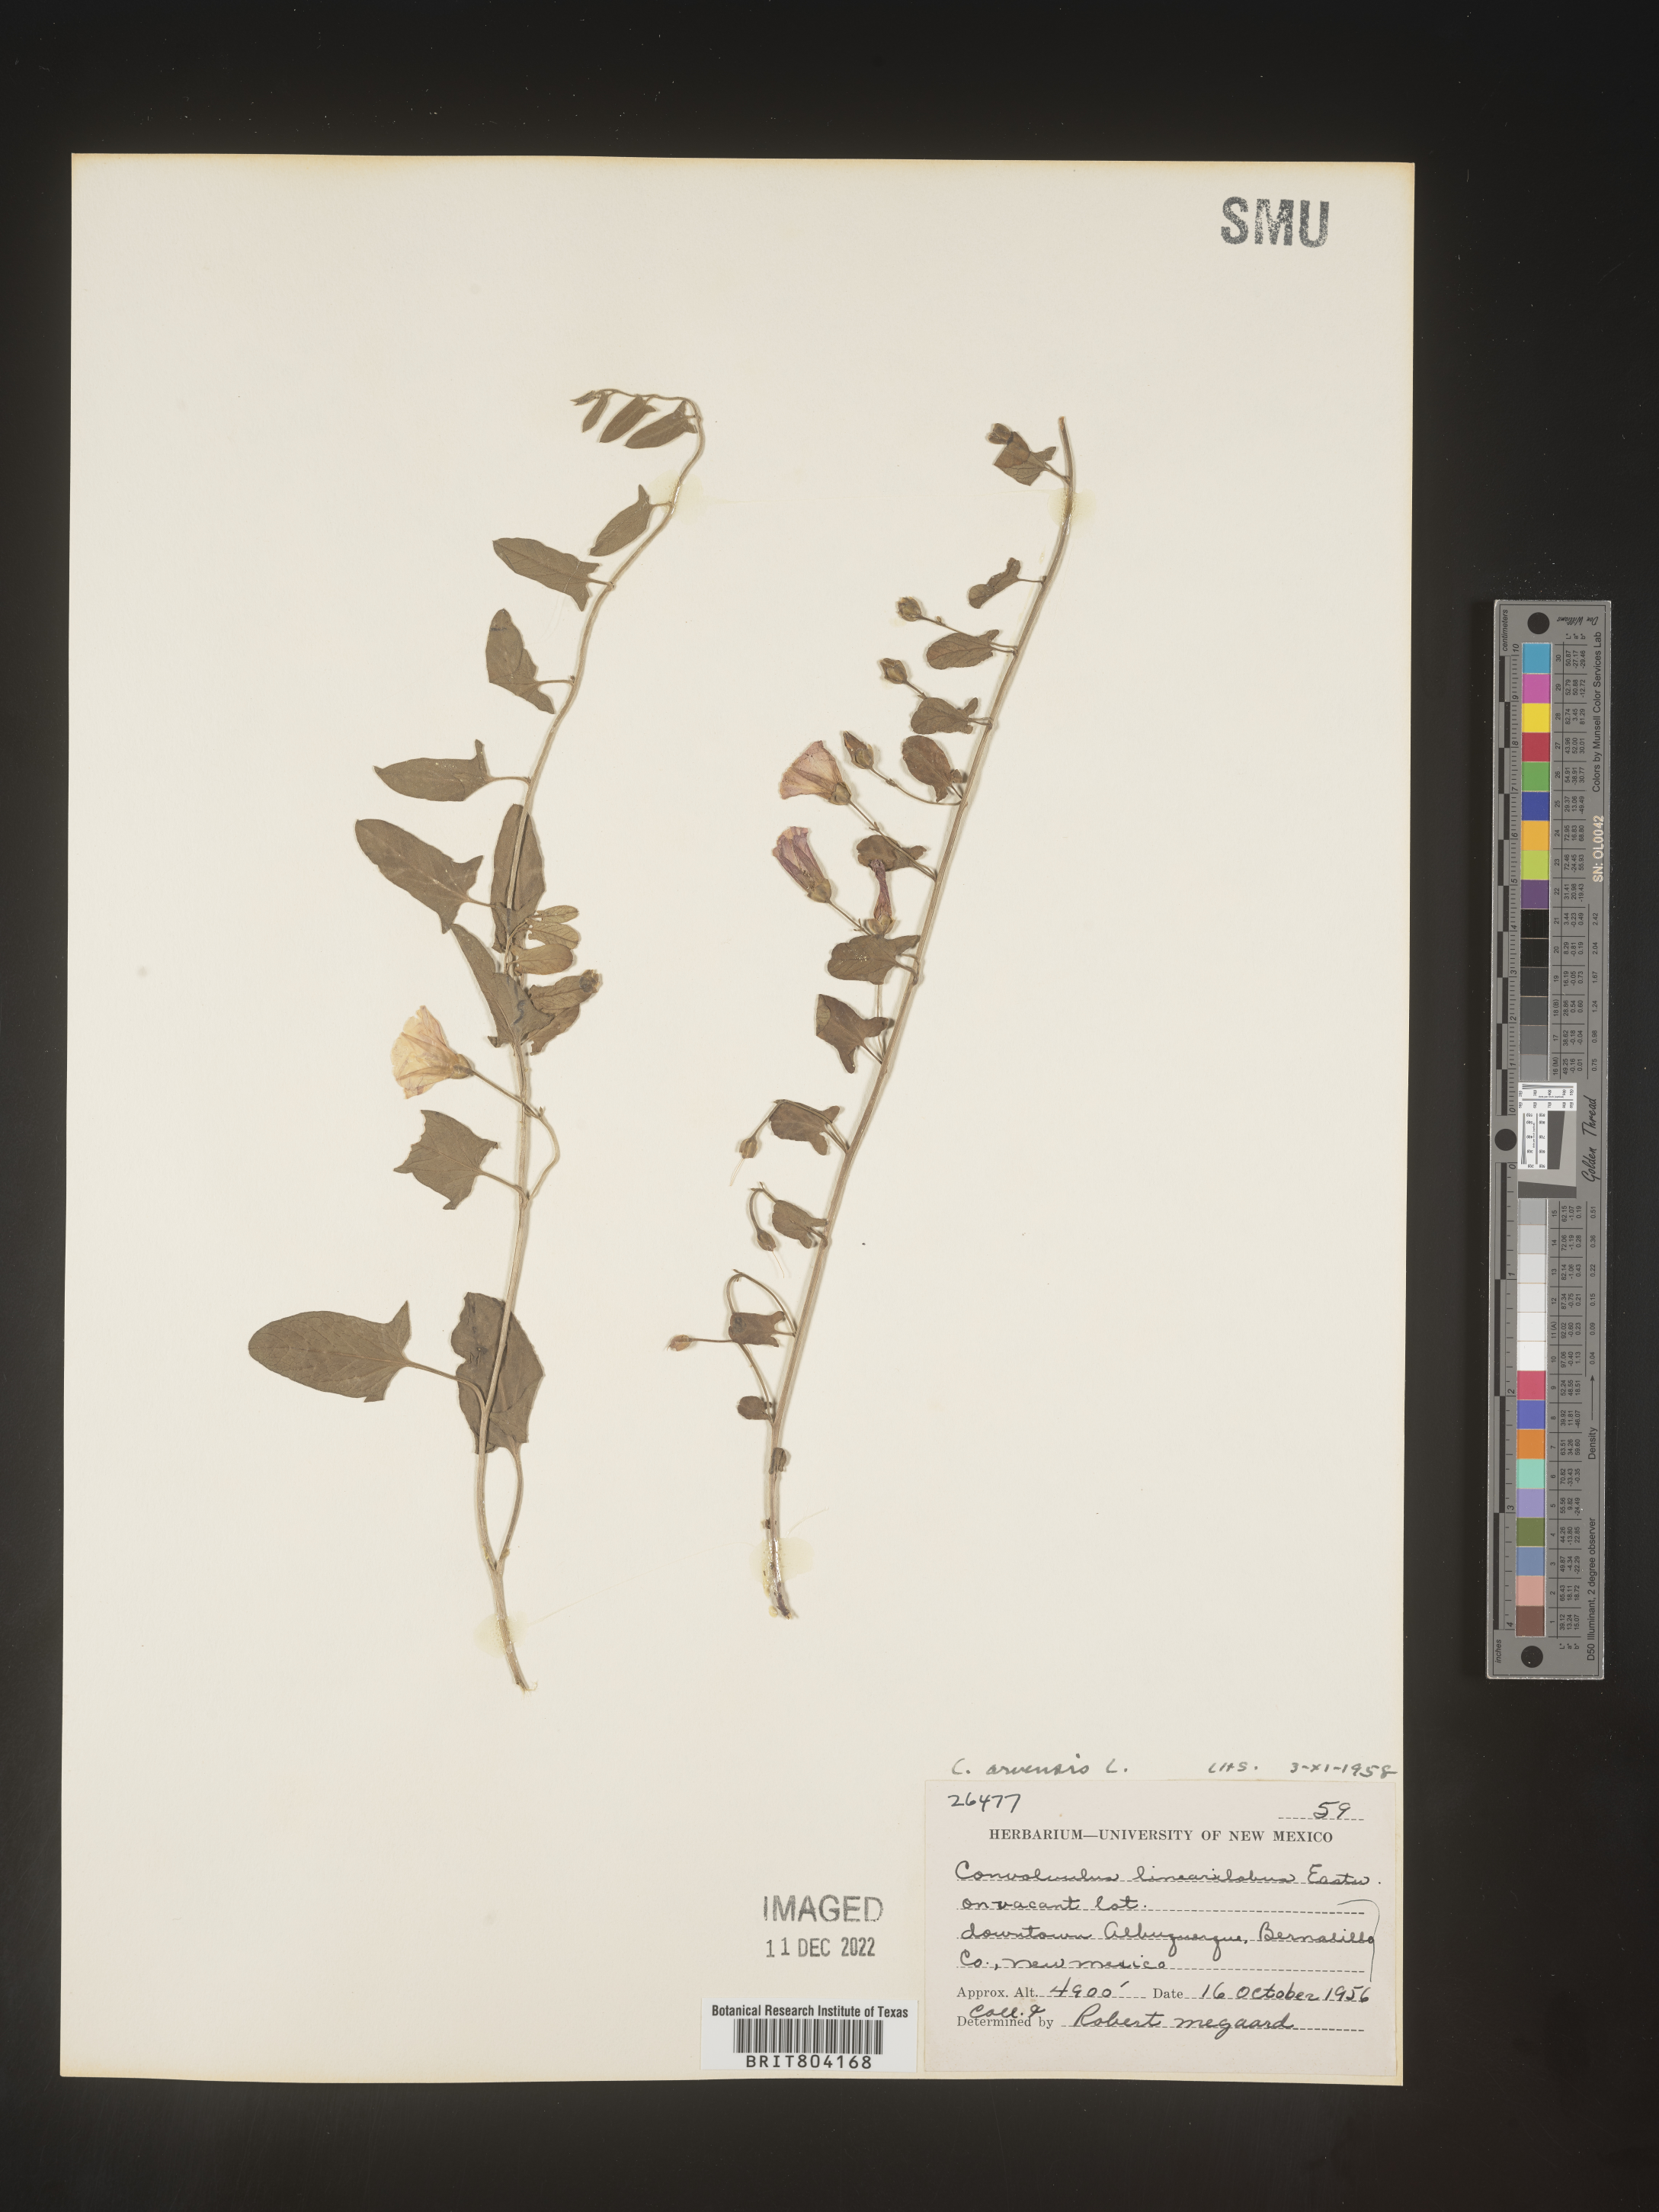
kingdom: Plantae
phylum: Tracheophyta
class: Magnoliopsida
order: Solanales
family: Convolvulaceae
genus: Convolvulus
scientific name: Convolvulus arvensis
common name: Field bindweed
